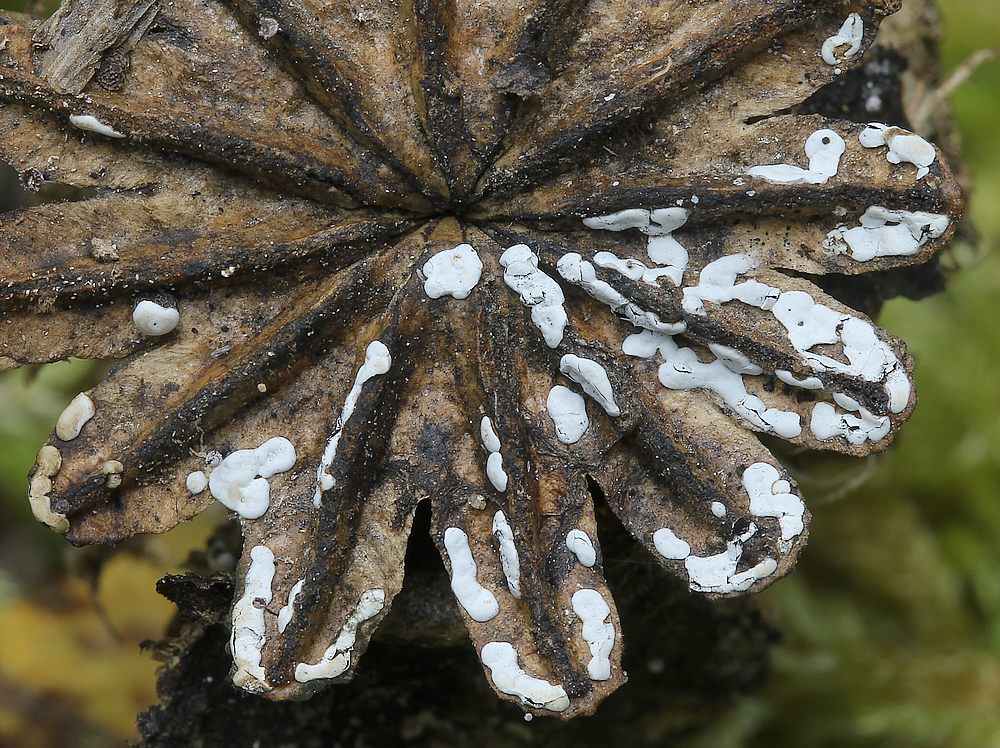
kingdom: Protozoa
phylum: Mycetozoa
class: Myxomycetes
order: Physarales
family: Didymiaceae
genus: Diderma
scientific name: Diderma deplanatum
